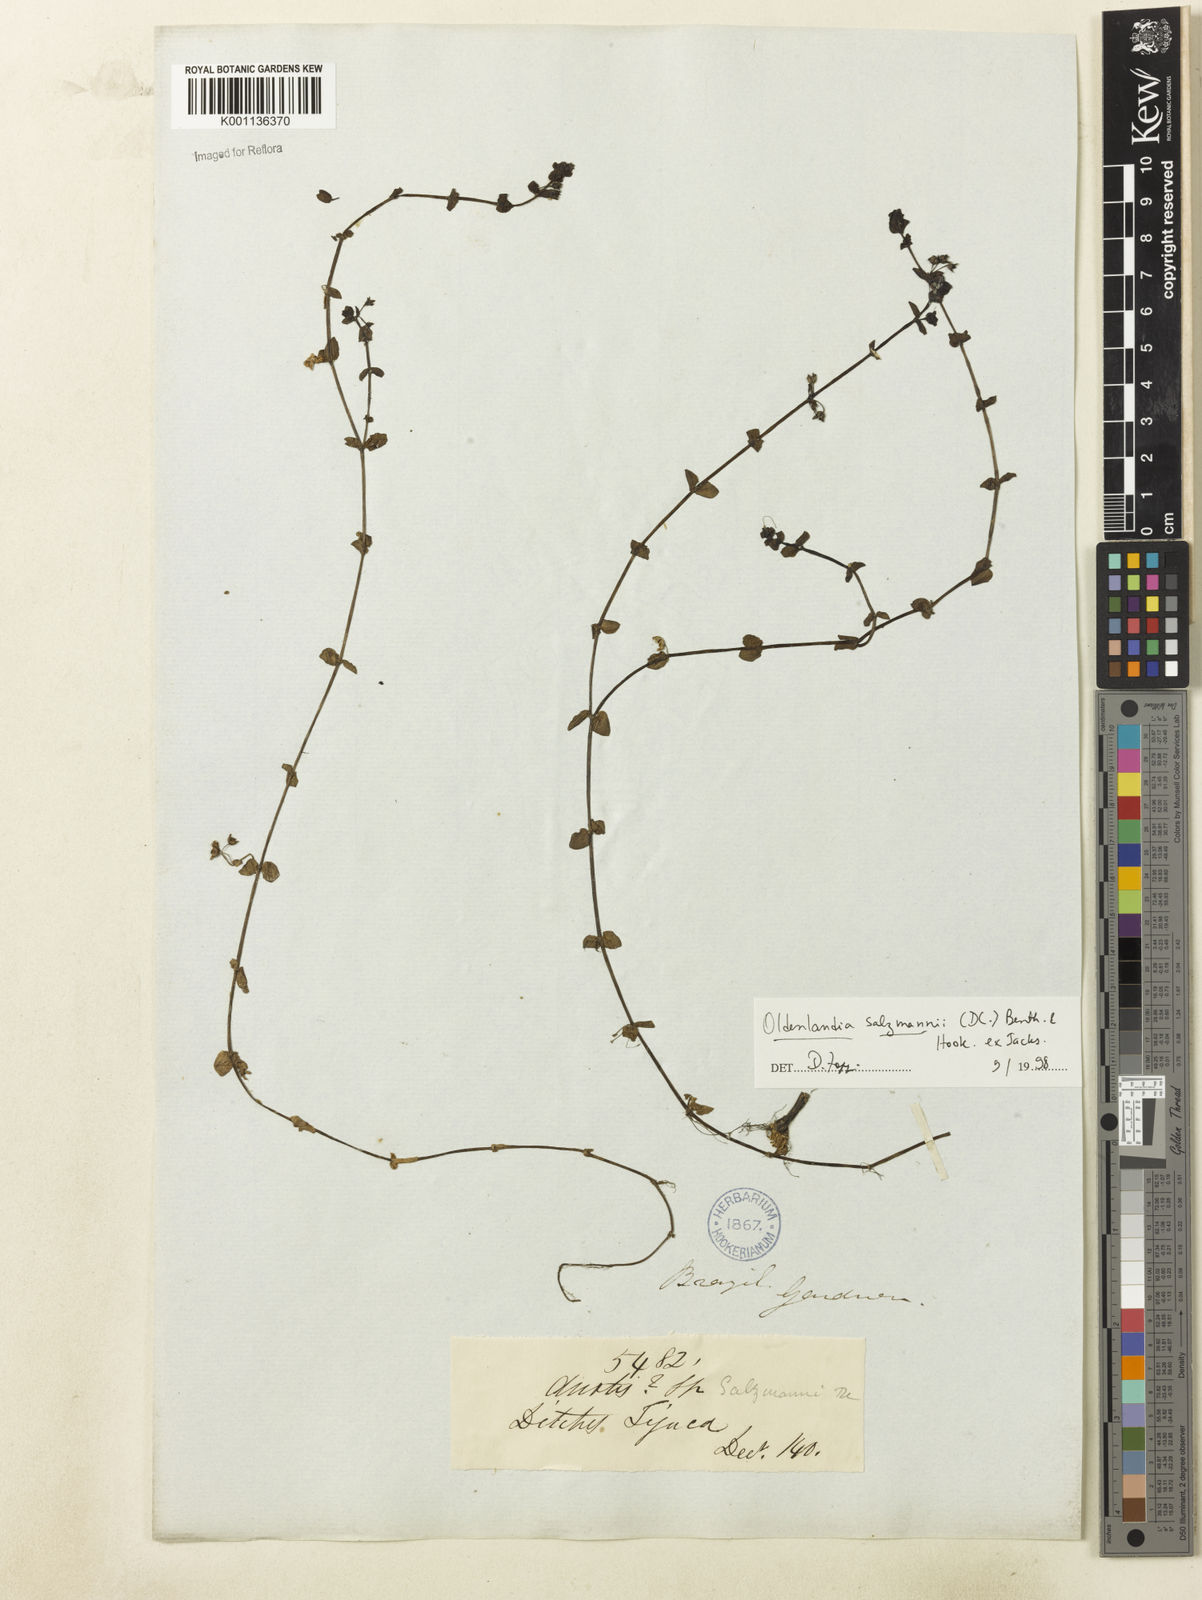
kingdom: Plantae
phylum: Tracheophyta
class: Magnoliopsida
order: Gentianales
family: Rubiaceae
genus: Oldenlandia
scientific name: Oldenlandia salzmannii
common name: Salzmann's mille graines
